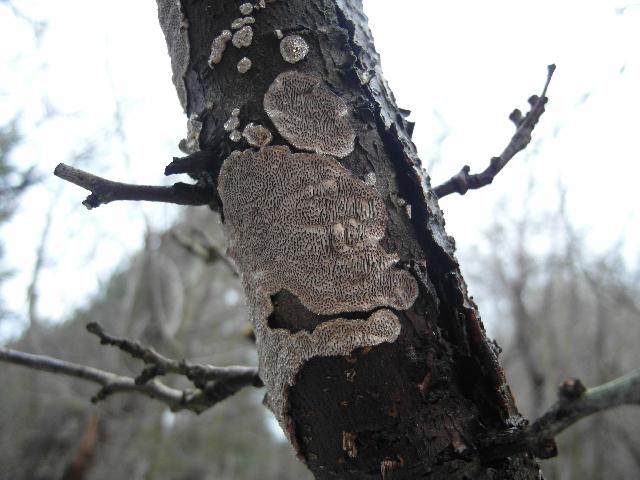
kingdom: Fungi
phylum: Basidiomycota
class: Agaricomycetes
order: Polyporales
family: Polyporaceae
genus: Podofomes
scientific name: Podofomes mollis
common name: blød begporesvamp
